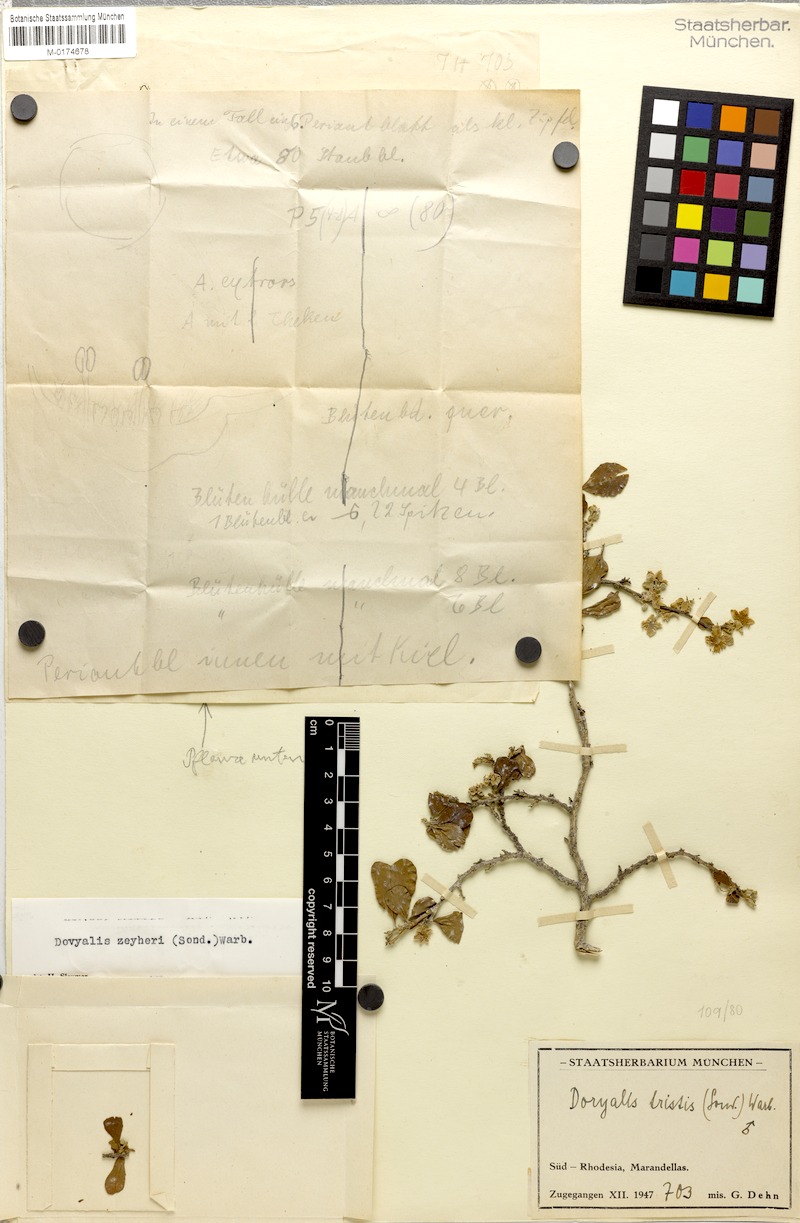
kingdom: Plantae
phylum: Tracheophyta
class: Magnoliopsida
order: Malpighiales
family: Salicaceae
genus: Dovyalis
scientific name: Dovyalis zeyheri
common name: Apricot sourberry
